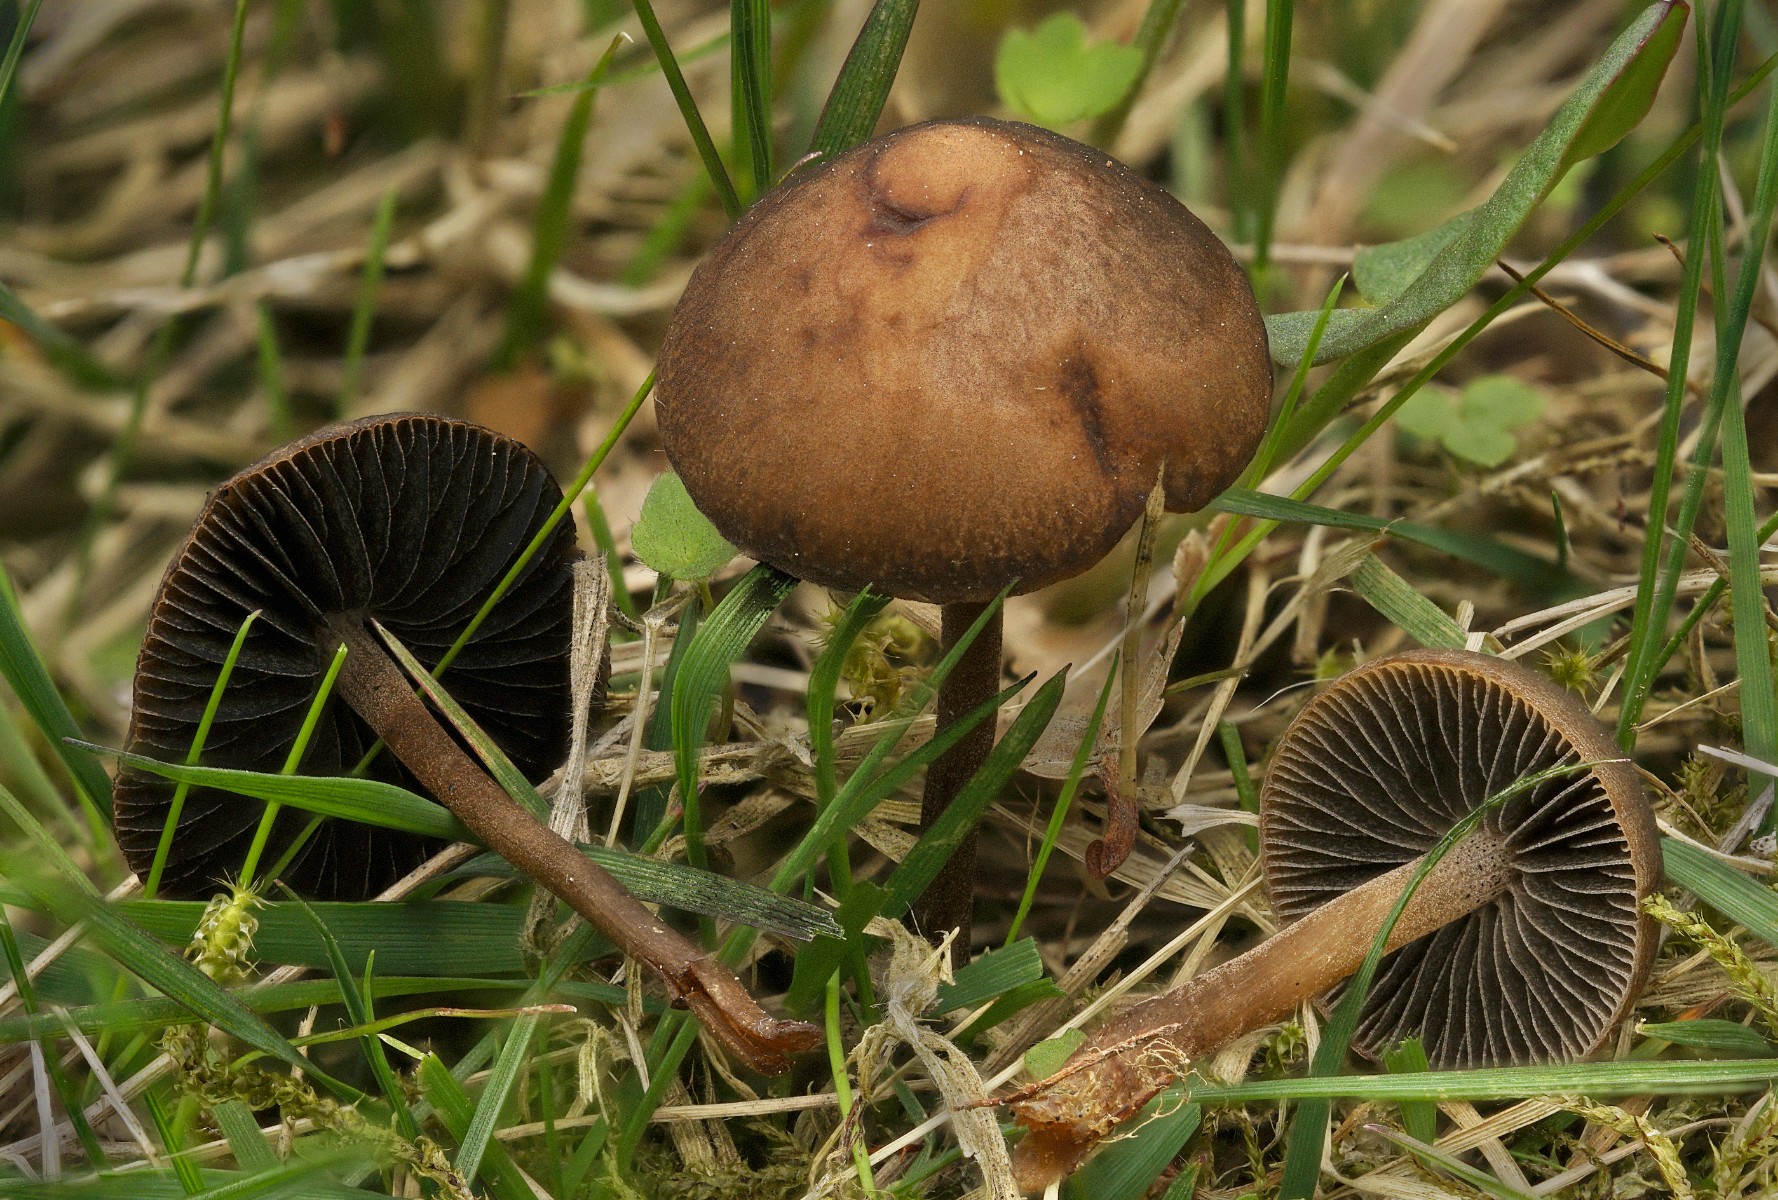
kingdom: Fungi
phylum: Basidiomycota
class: Agaricomycetes
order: Agaricales
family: Bolbitiaceae
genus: Panaeolus
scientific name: Panaeolus fimicola
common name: tidlig glanshat
